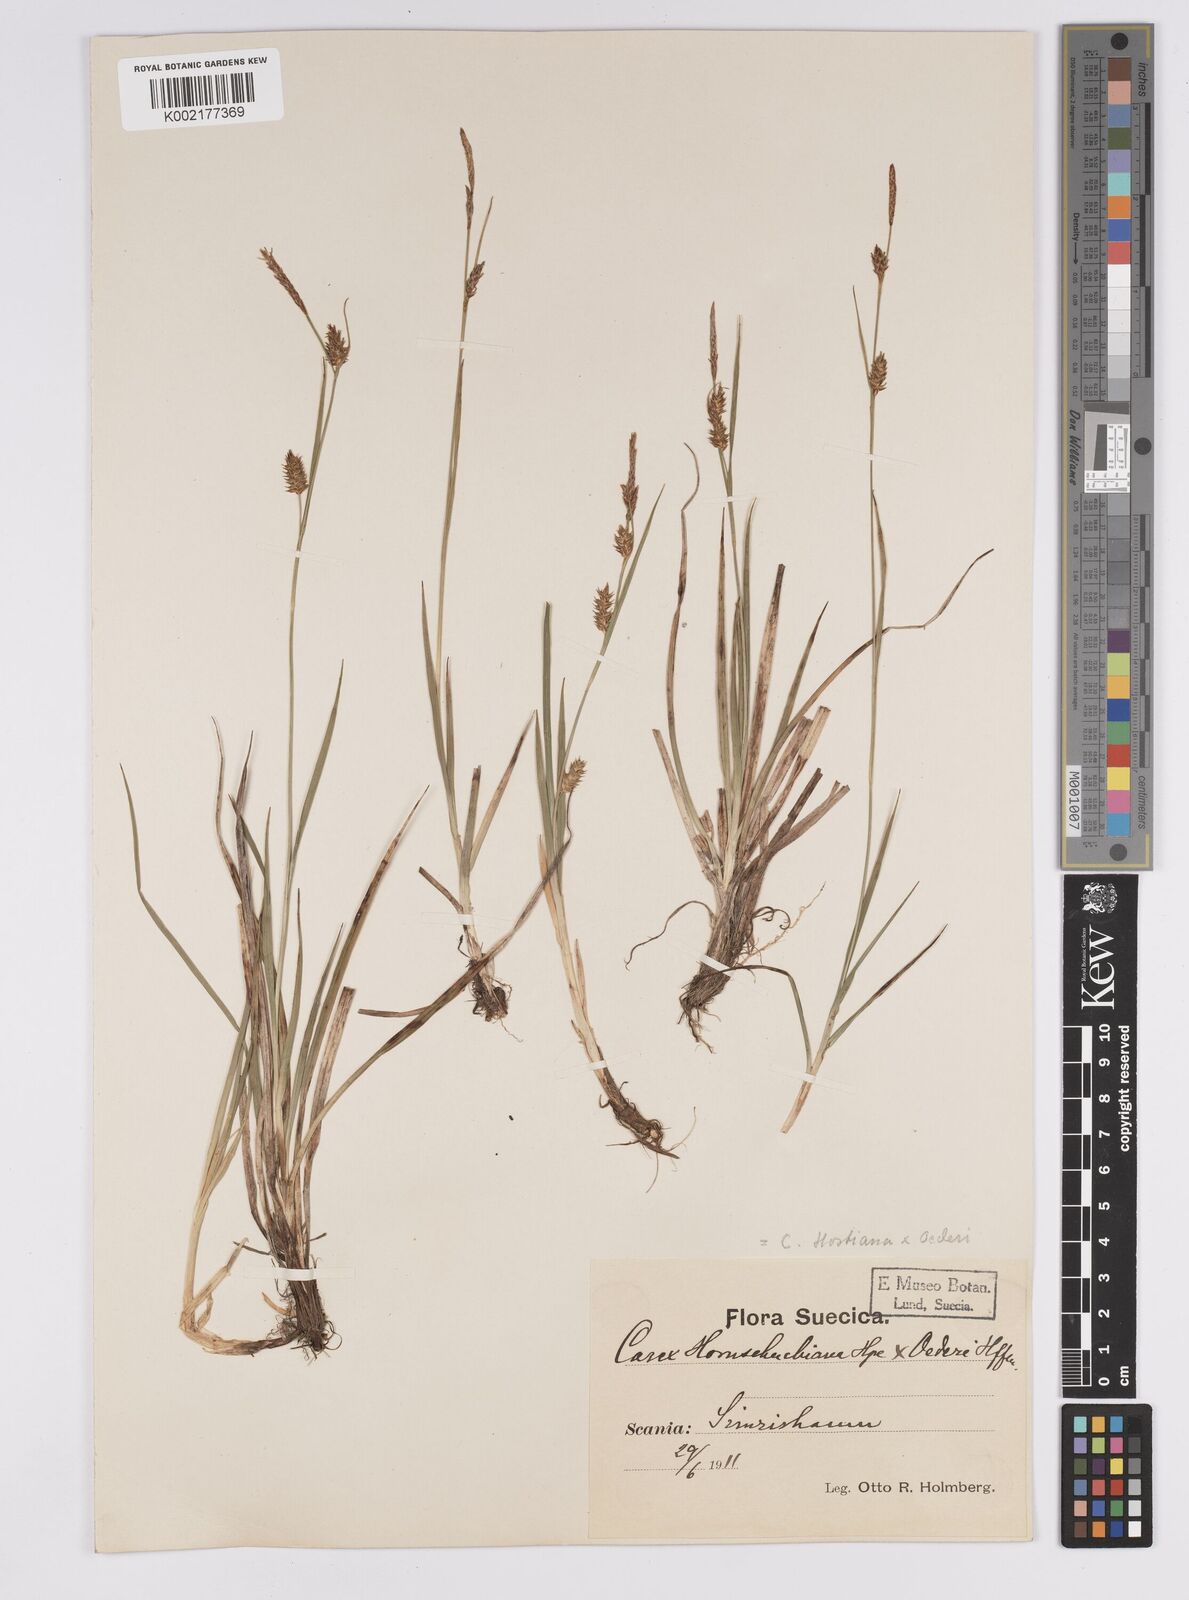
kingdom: Plantae
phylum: Tracheophyta
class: Liliopsida
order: Poales
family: Cyperaceae
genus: Carex
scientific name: Carex hostiana
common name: Tawny sedge
